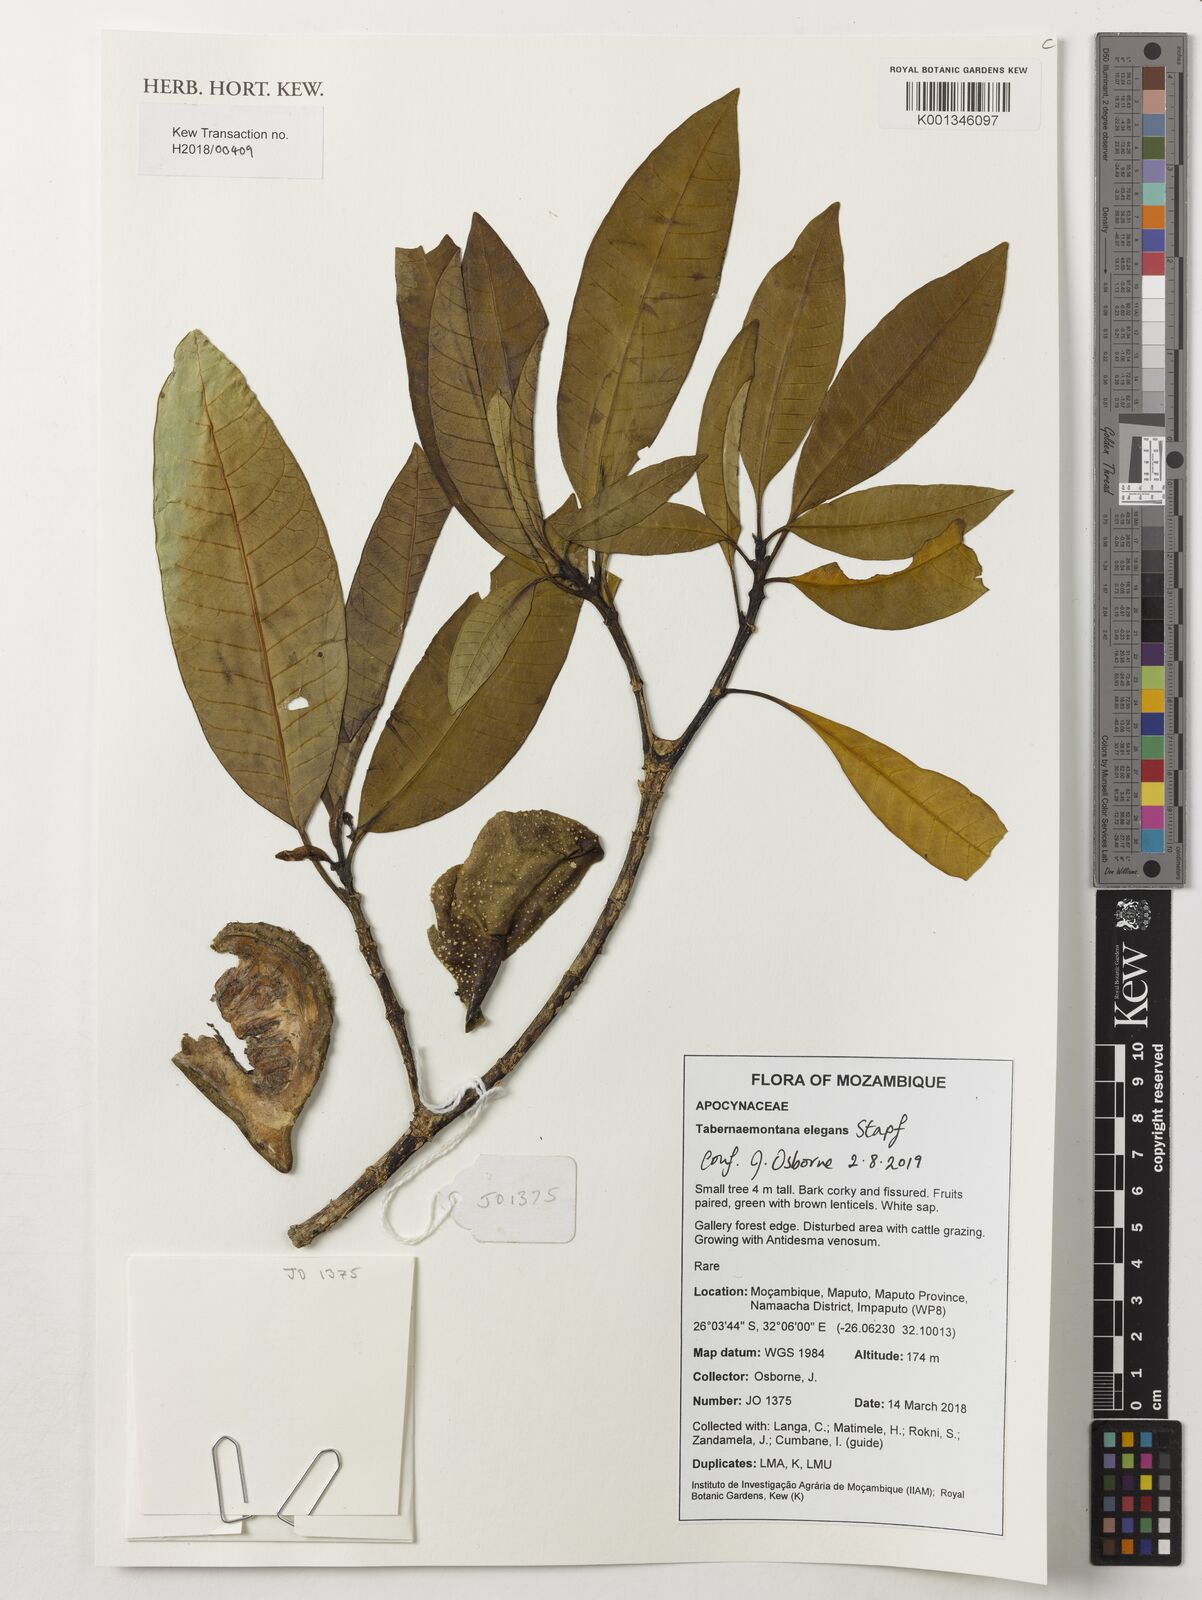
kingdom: Plantae
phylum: Tracheophyta
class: Magnoliopsida
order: Gentianales
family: Apocynaceae
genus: Tabernaemontana
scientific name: Tabernaemontana elegans
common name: Toadtree
